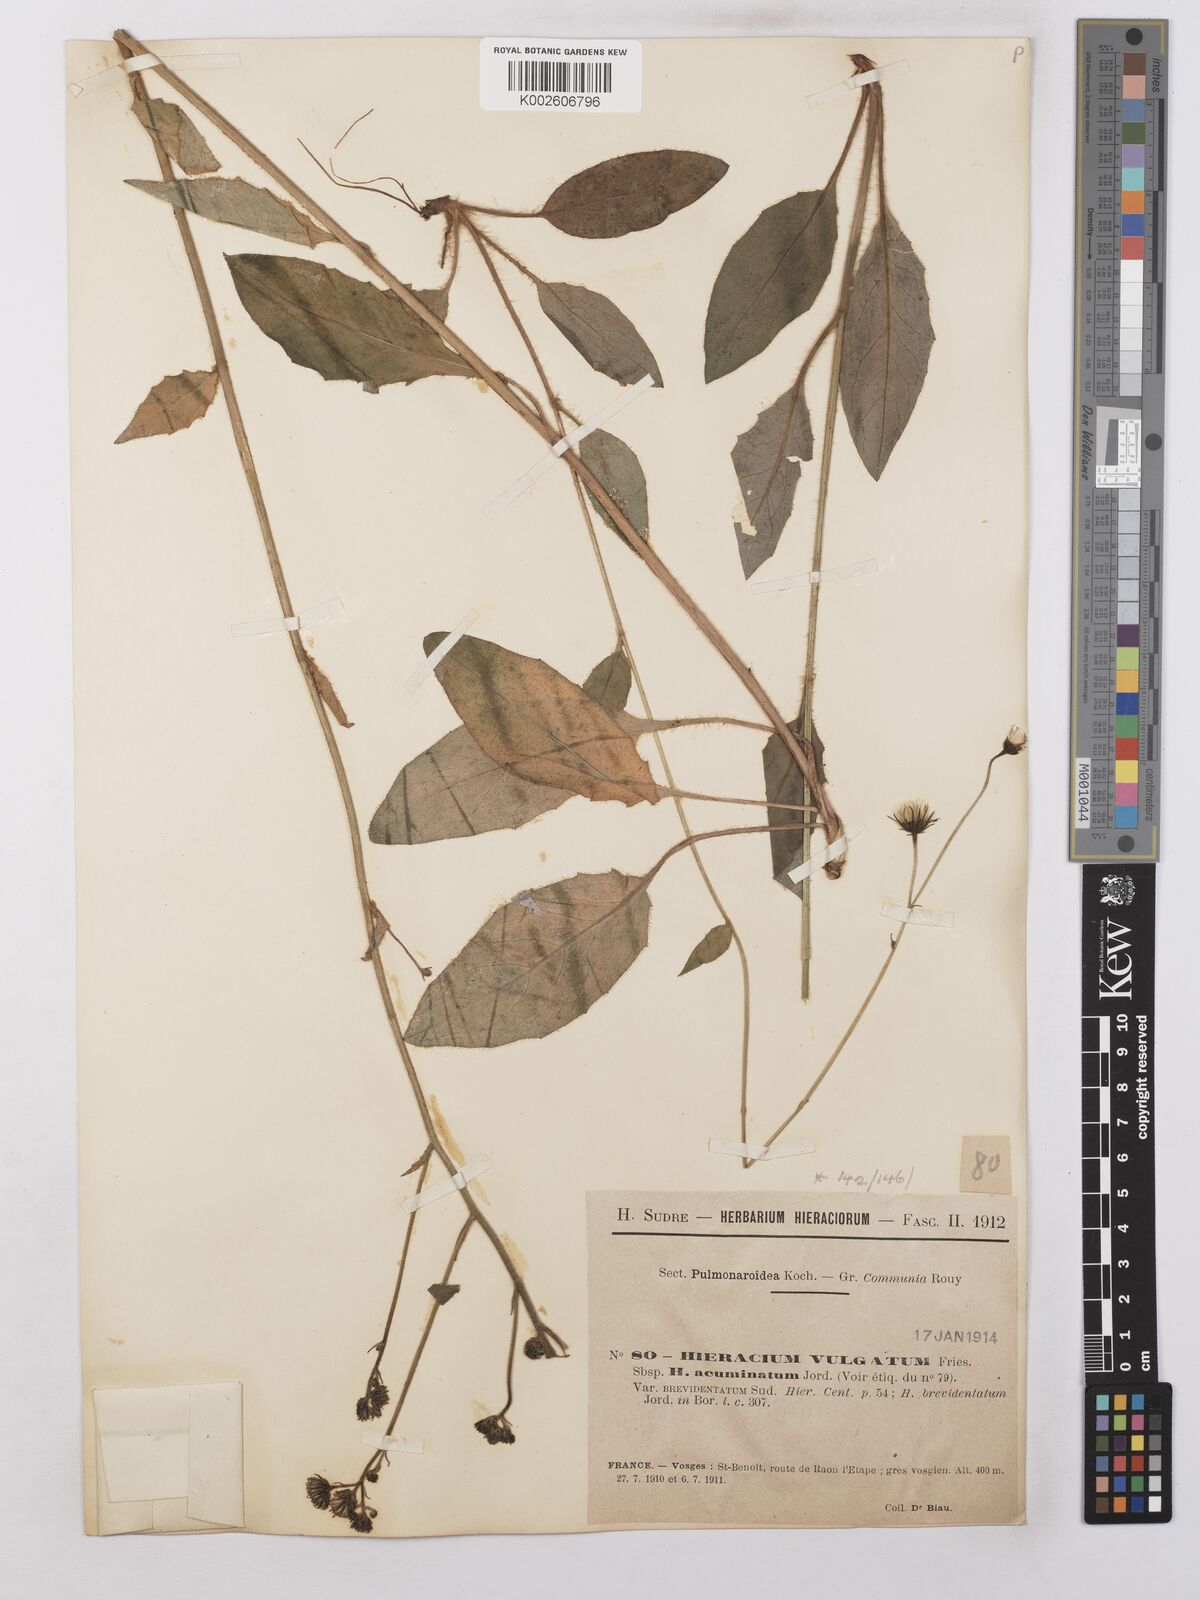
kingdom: Plantae
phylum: Tracheophyta
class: Magnoliopsida
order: Asterales
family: Asteraceae
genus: Hieracium
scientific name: Hieracium lachenalii
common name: Common hawkweed
